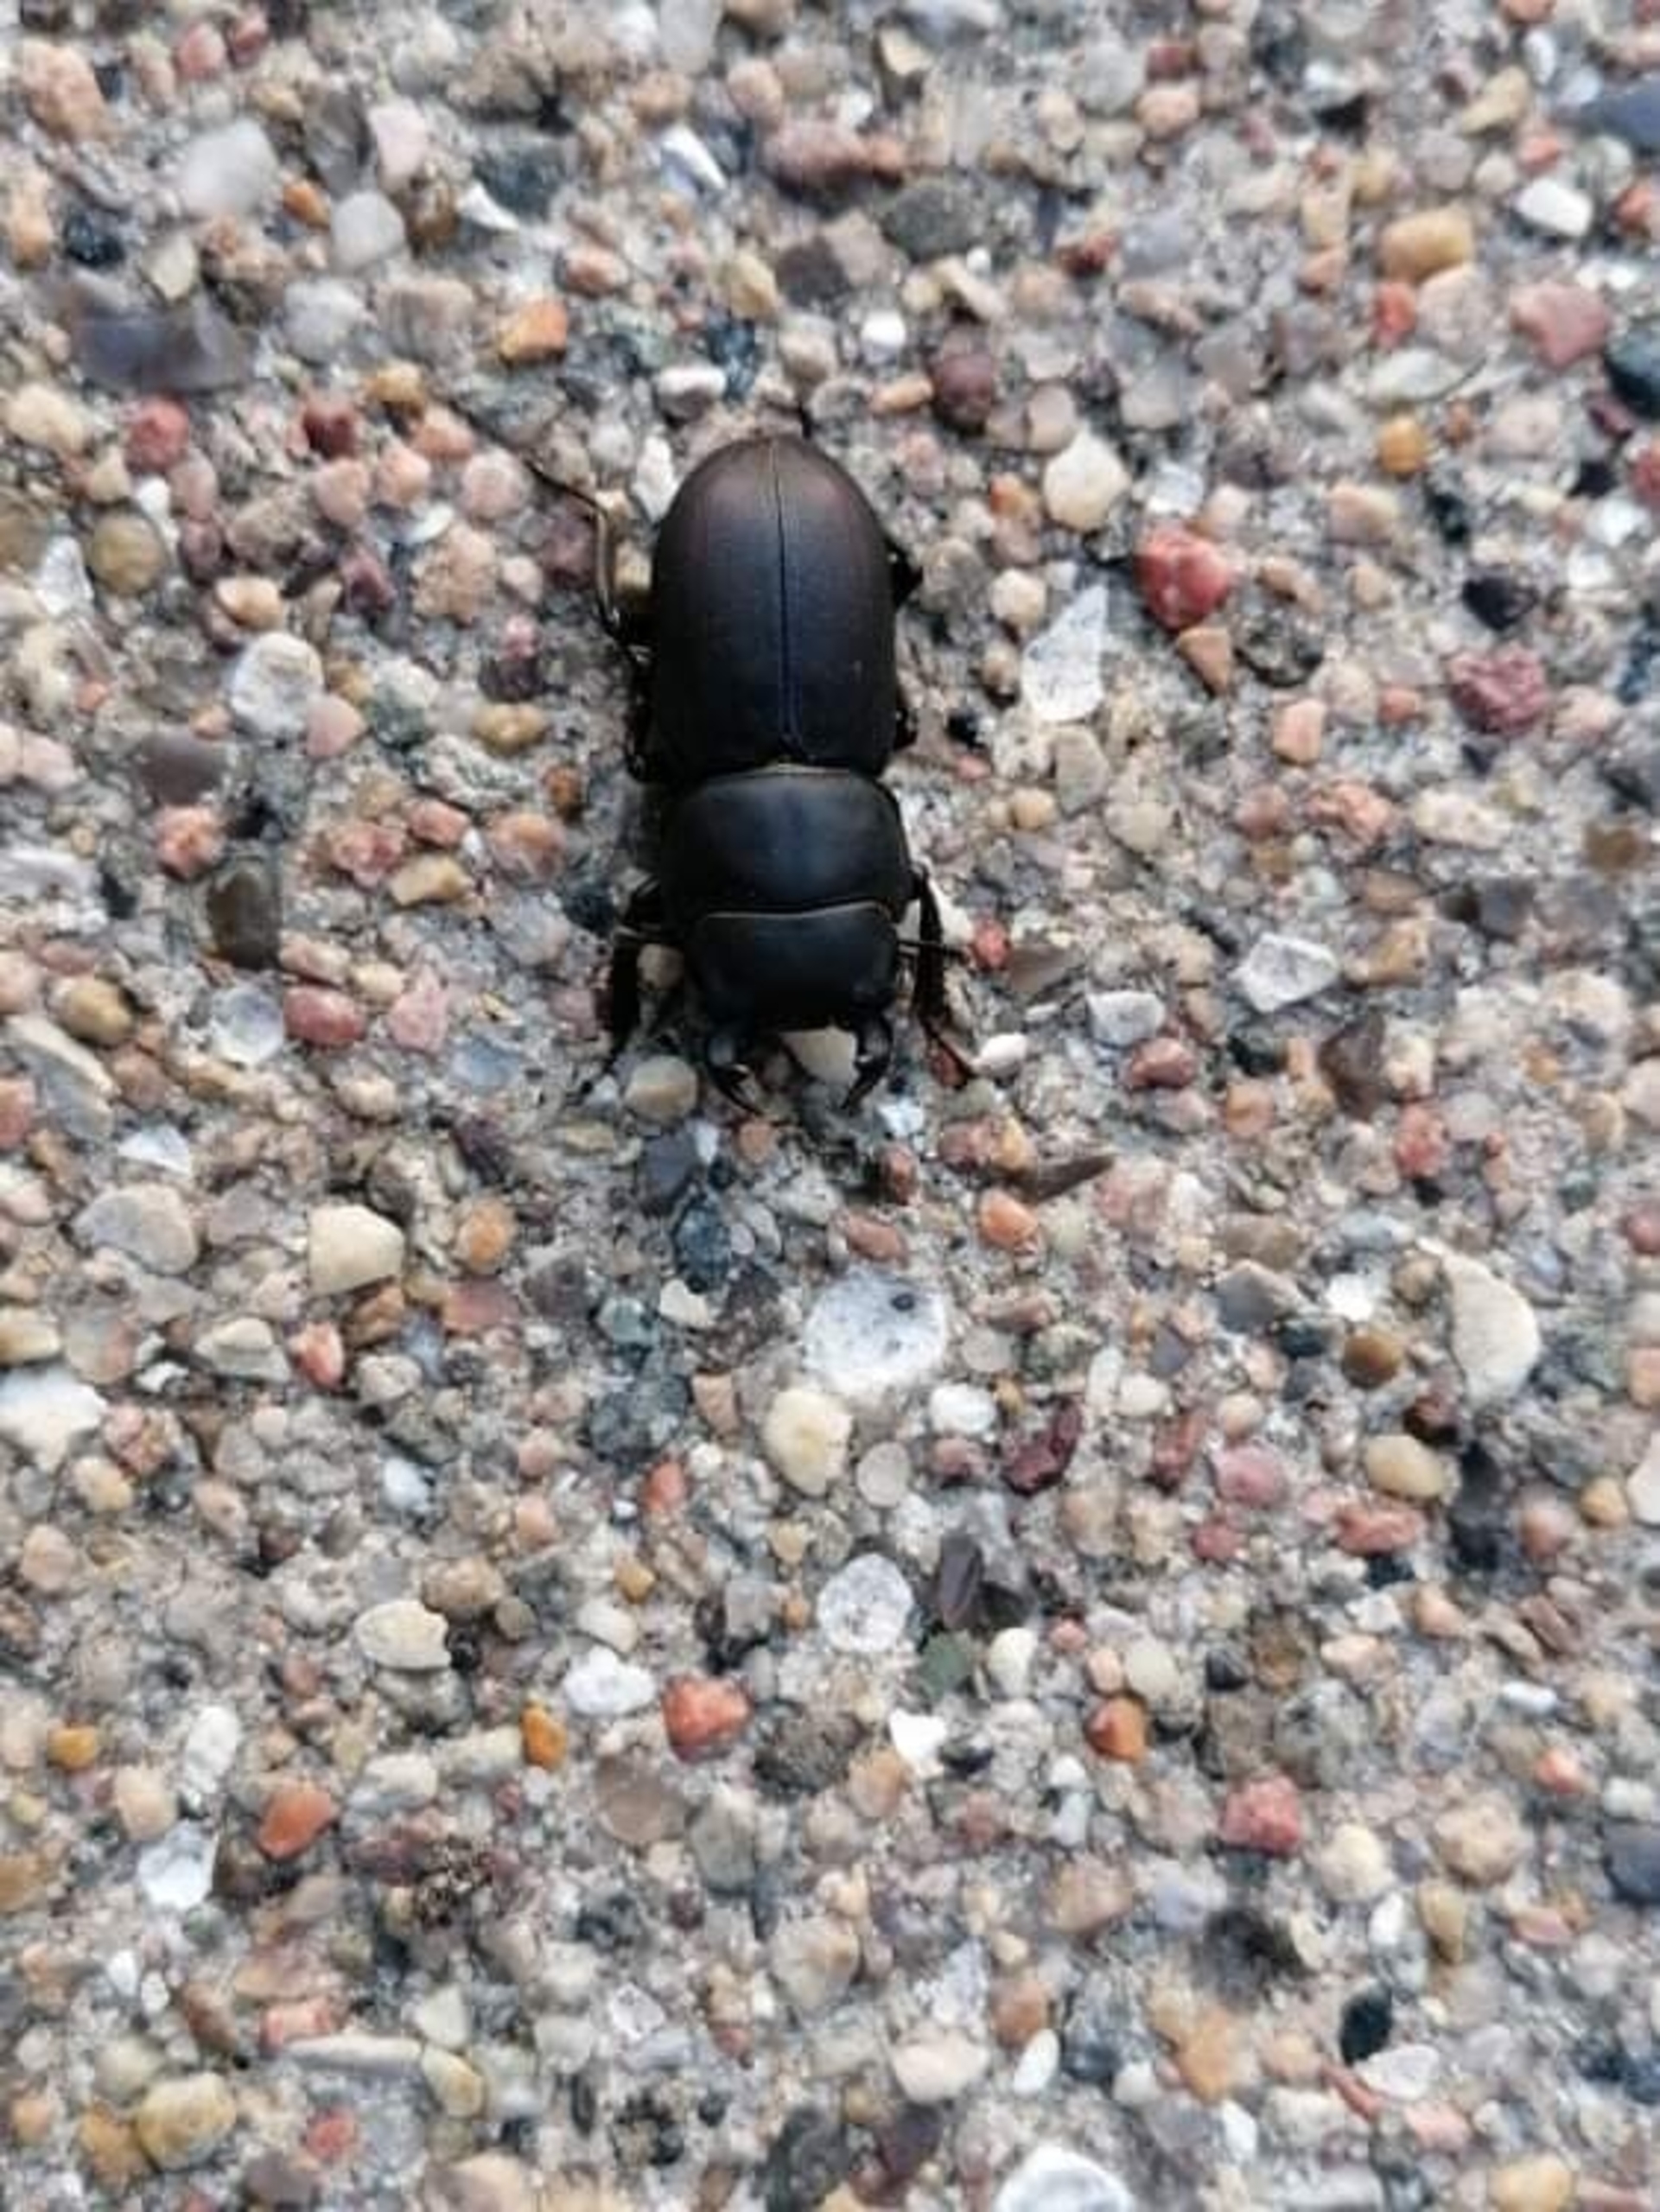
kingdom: Animalia
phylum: Arthropoda
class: Insecta
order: Coleoptera
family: Lucanidae
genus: Dorcus
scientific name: Dorcus parallelipipedus
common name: Bøghjort
